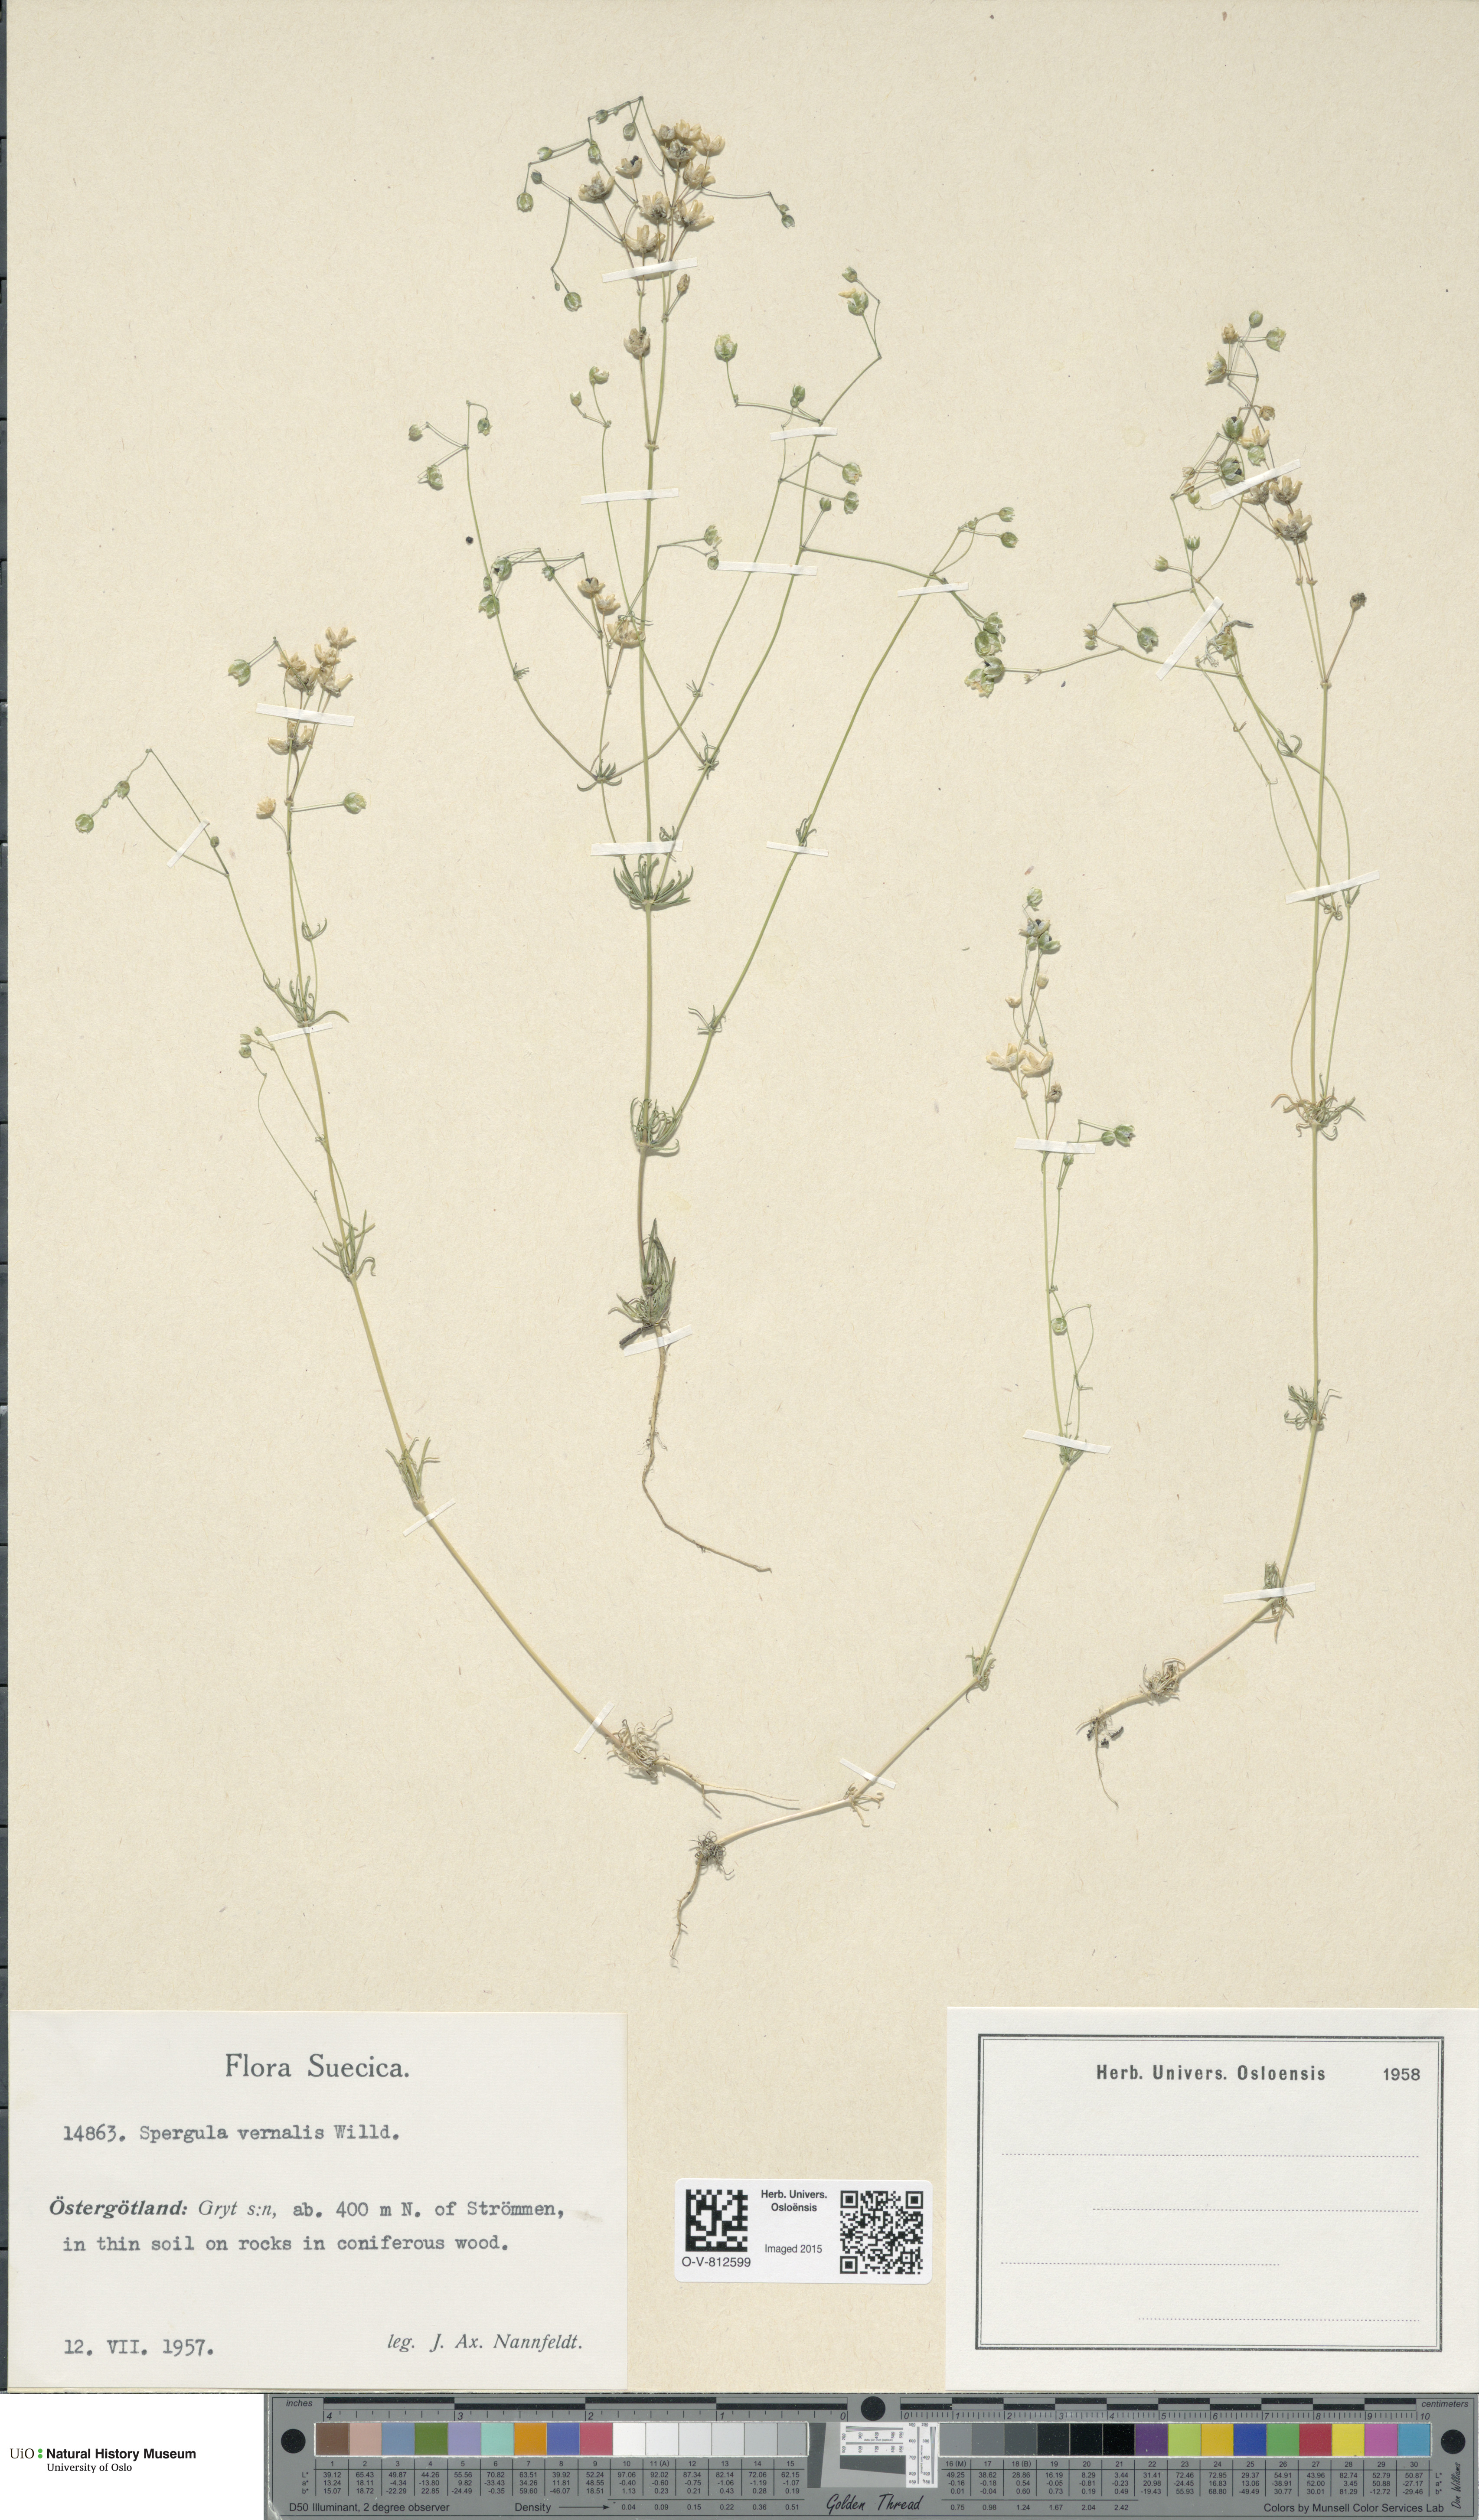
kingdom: Plantae
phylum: Tracheophyta
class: Magnoliopsida
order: Caryophyllales
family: Caryophyllaceae
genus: Spergula
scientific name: Spergula morisonii
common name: Pearlwort spurrey
